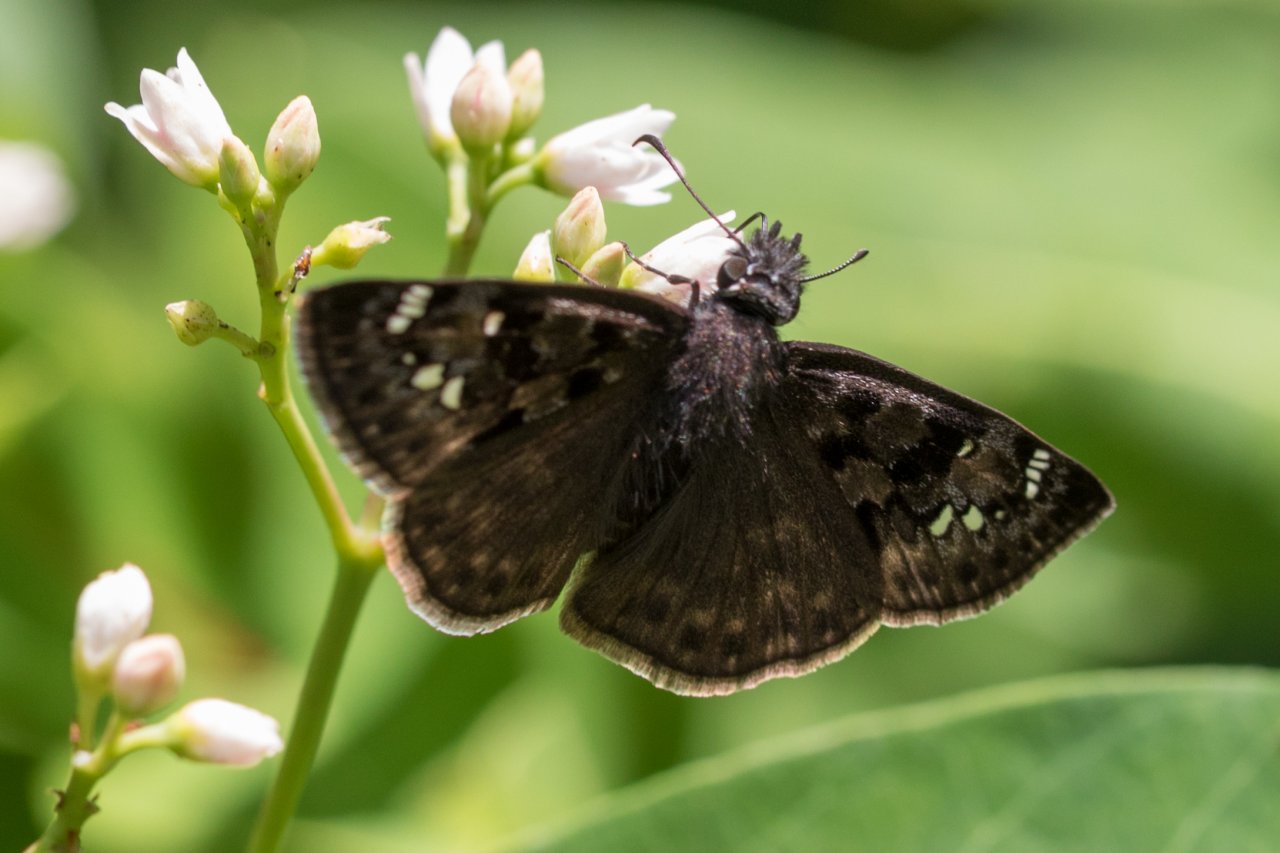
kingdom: Animalia
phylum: Arthropoda
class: Insecta
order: Lepidoptera
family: Hesperiidae
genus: Gesta
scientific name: Gesta
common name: Horace's Duskywing
